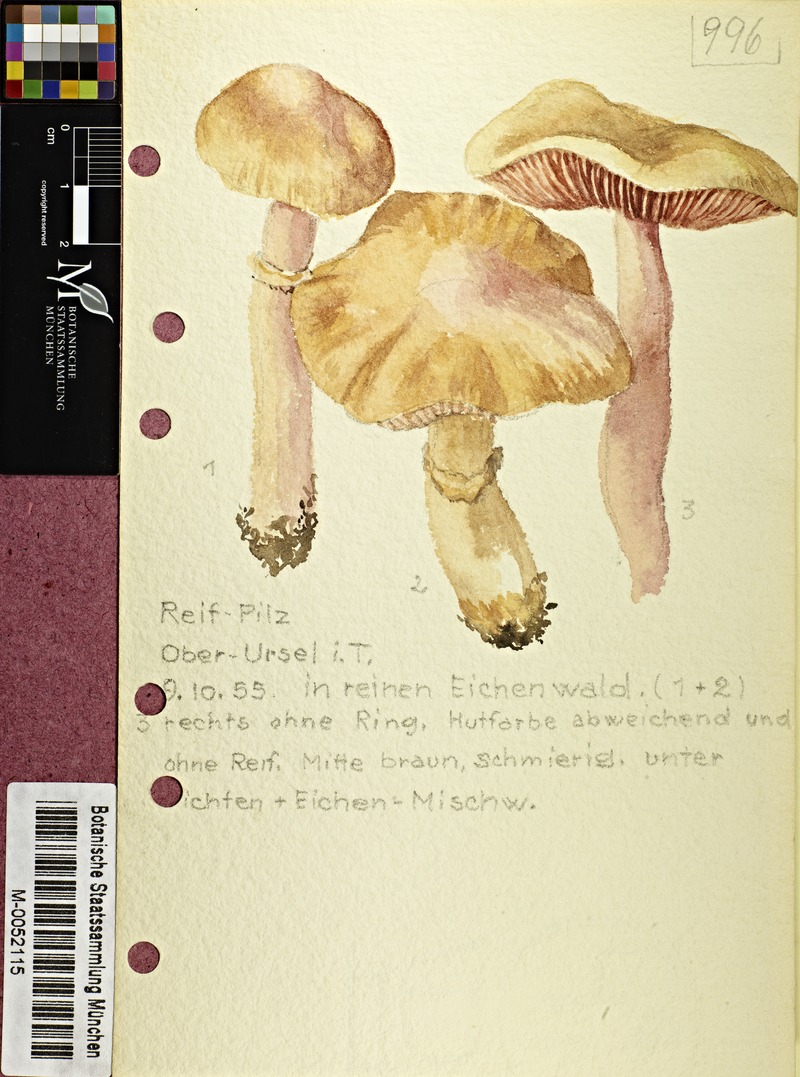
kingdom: Fungi
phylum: Basidiomycota
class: Agaricomycetes
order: Agaricales
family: Cortinariaceae
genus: Cortinarius
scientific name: Cortinarius caperatus
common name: The gypsy
